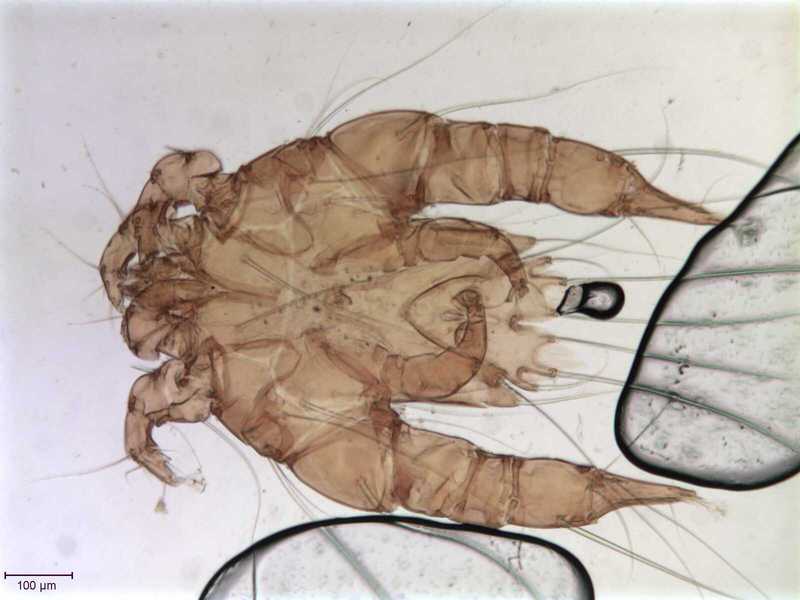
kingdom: Animalia
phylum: Arthropoda
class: Arachnida
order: Sarcoptiformes
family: Psoroptoididae
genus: Mesalges
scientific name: Mesalges
